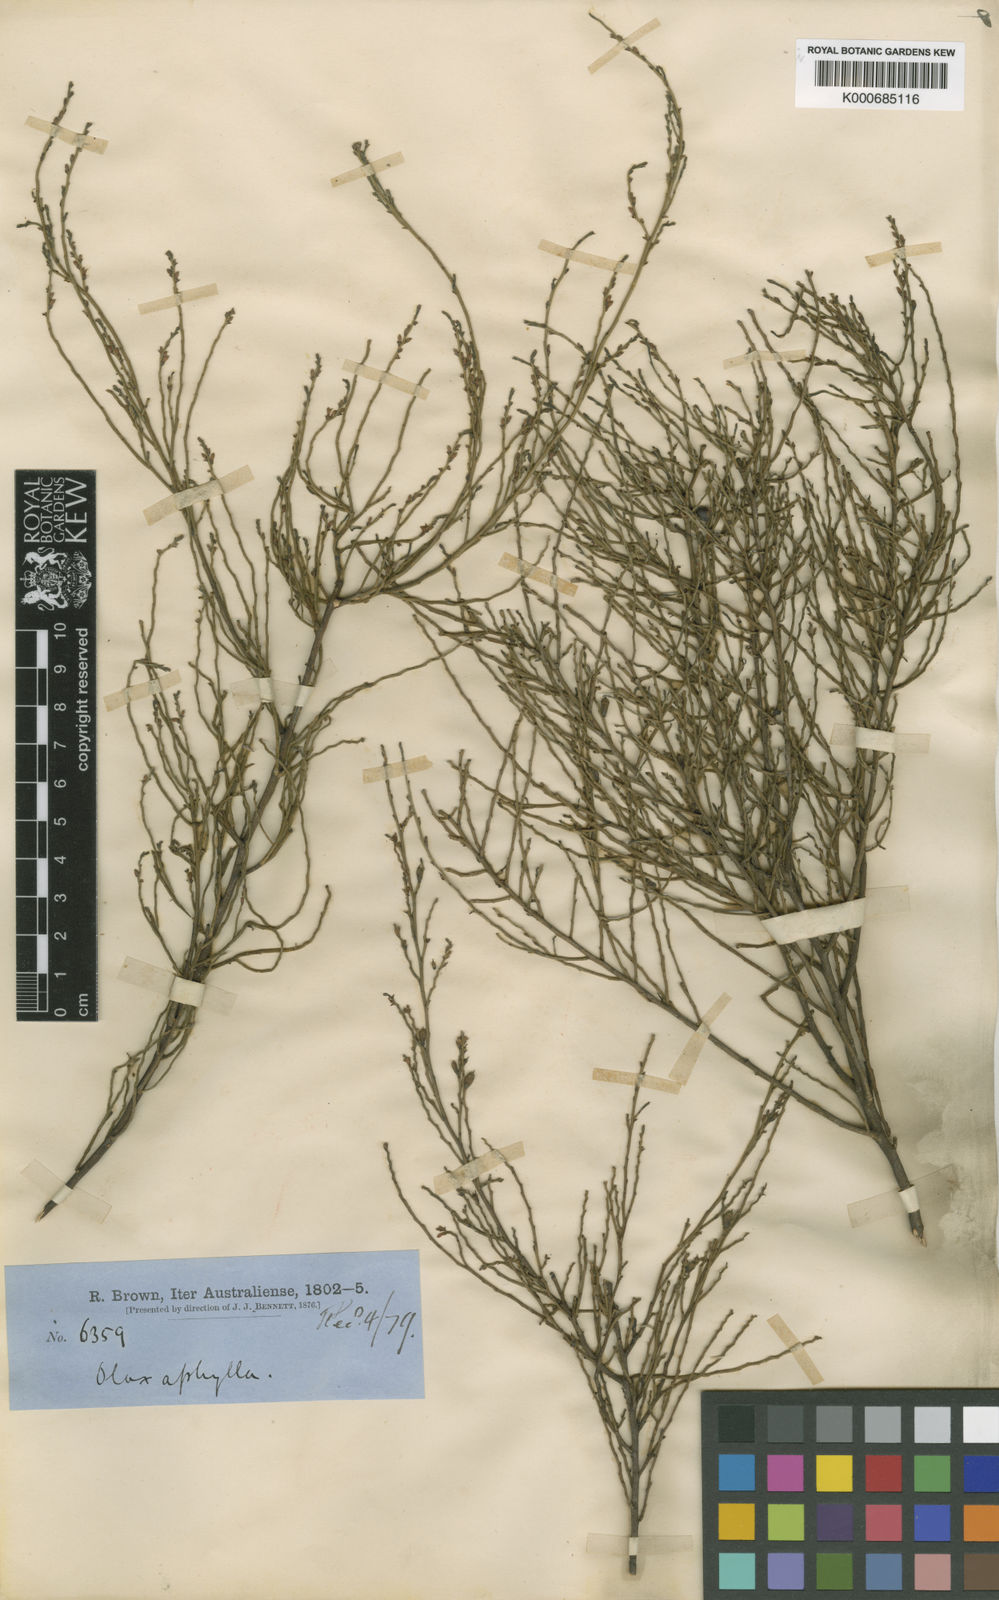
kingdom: Plantae
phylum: Tracheophyta
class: Magnoliopsida
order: Santalales
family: Olacaceae
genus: Olax
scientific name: Olax aphylla
